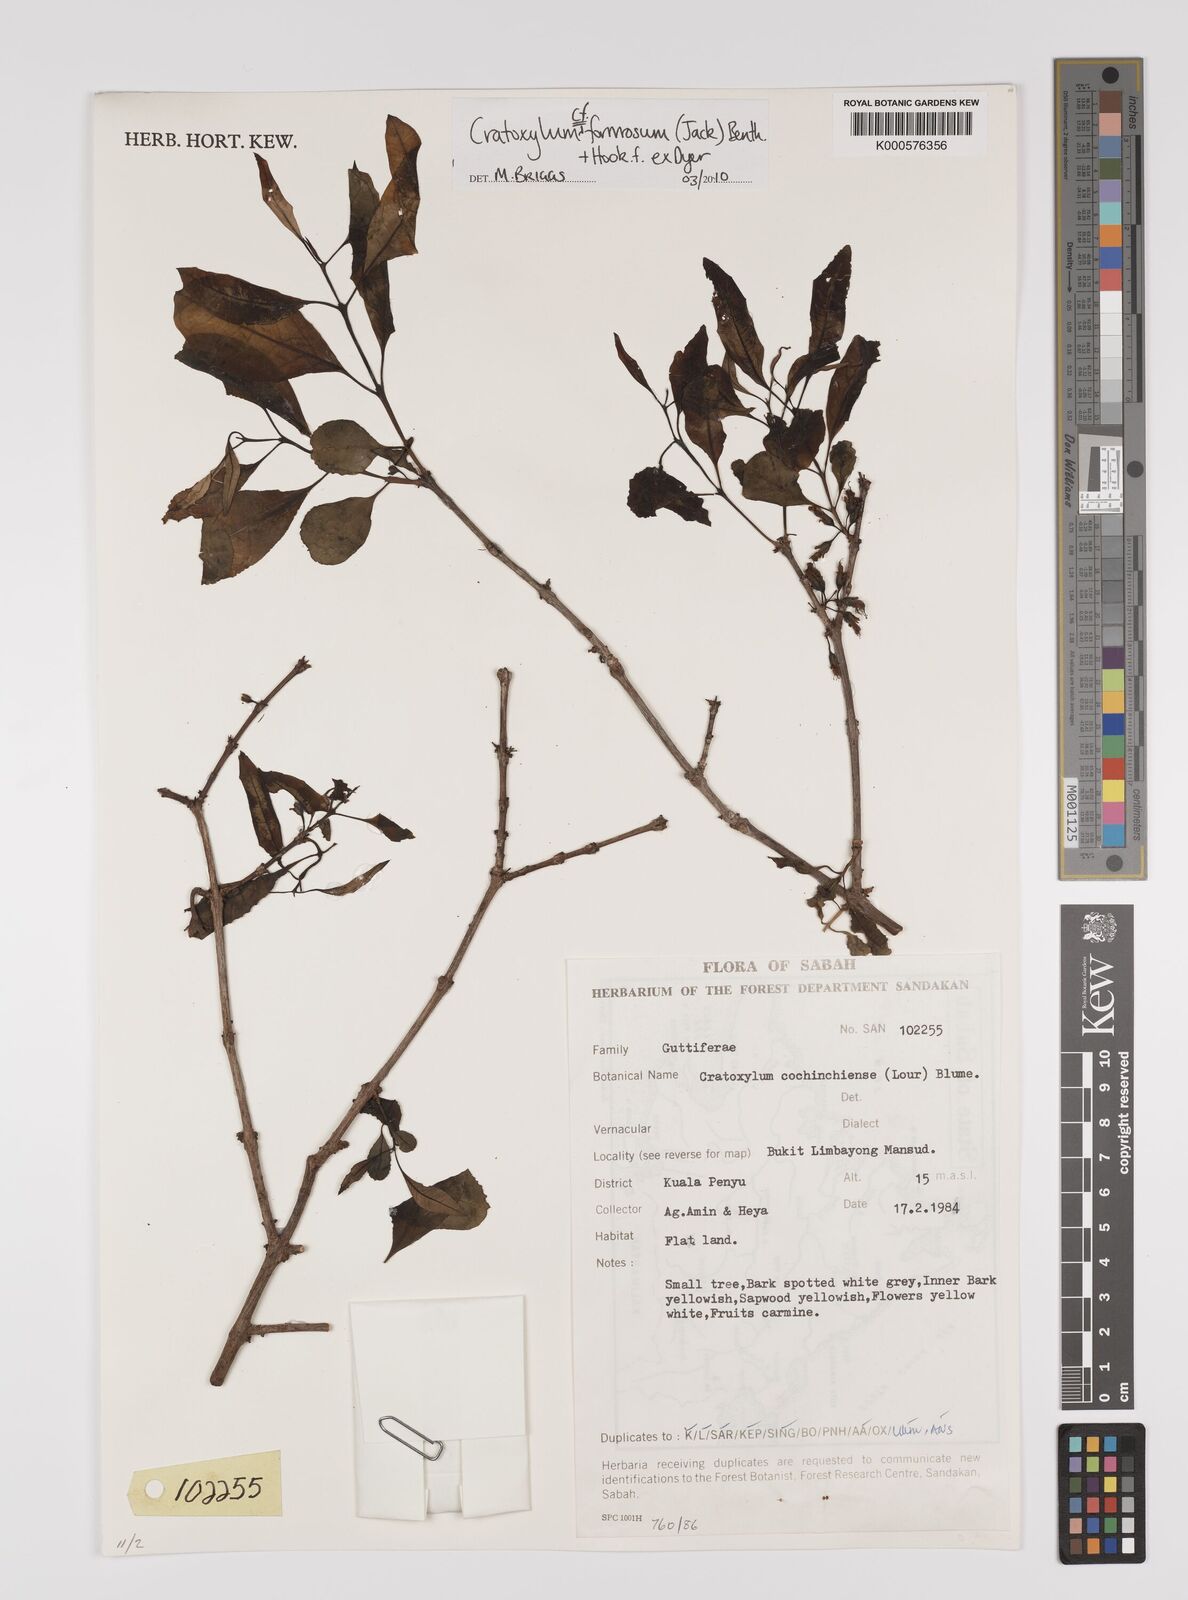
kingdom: Plantae
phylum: Tracheophyta
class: Magnoliopsida
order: Malpighiales
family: Hypericaceae
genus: Cratoxylum
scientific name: Cratoxylum formosum
